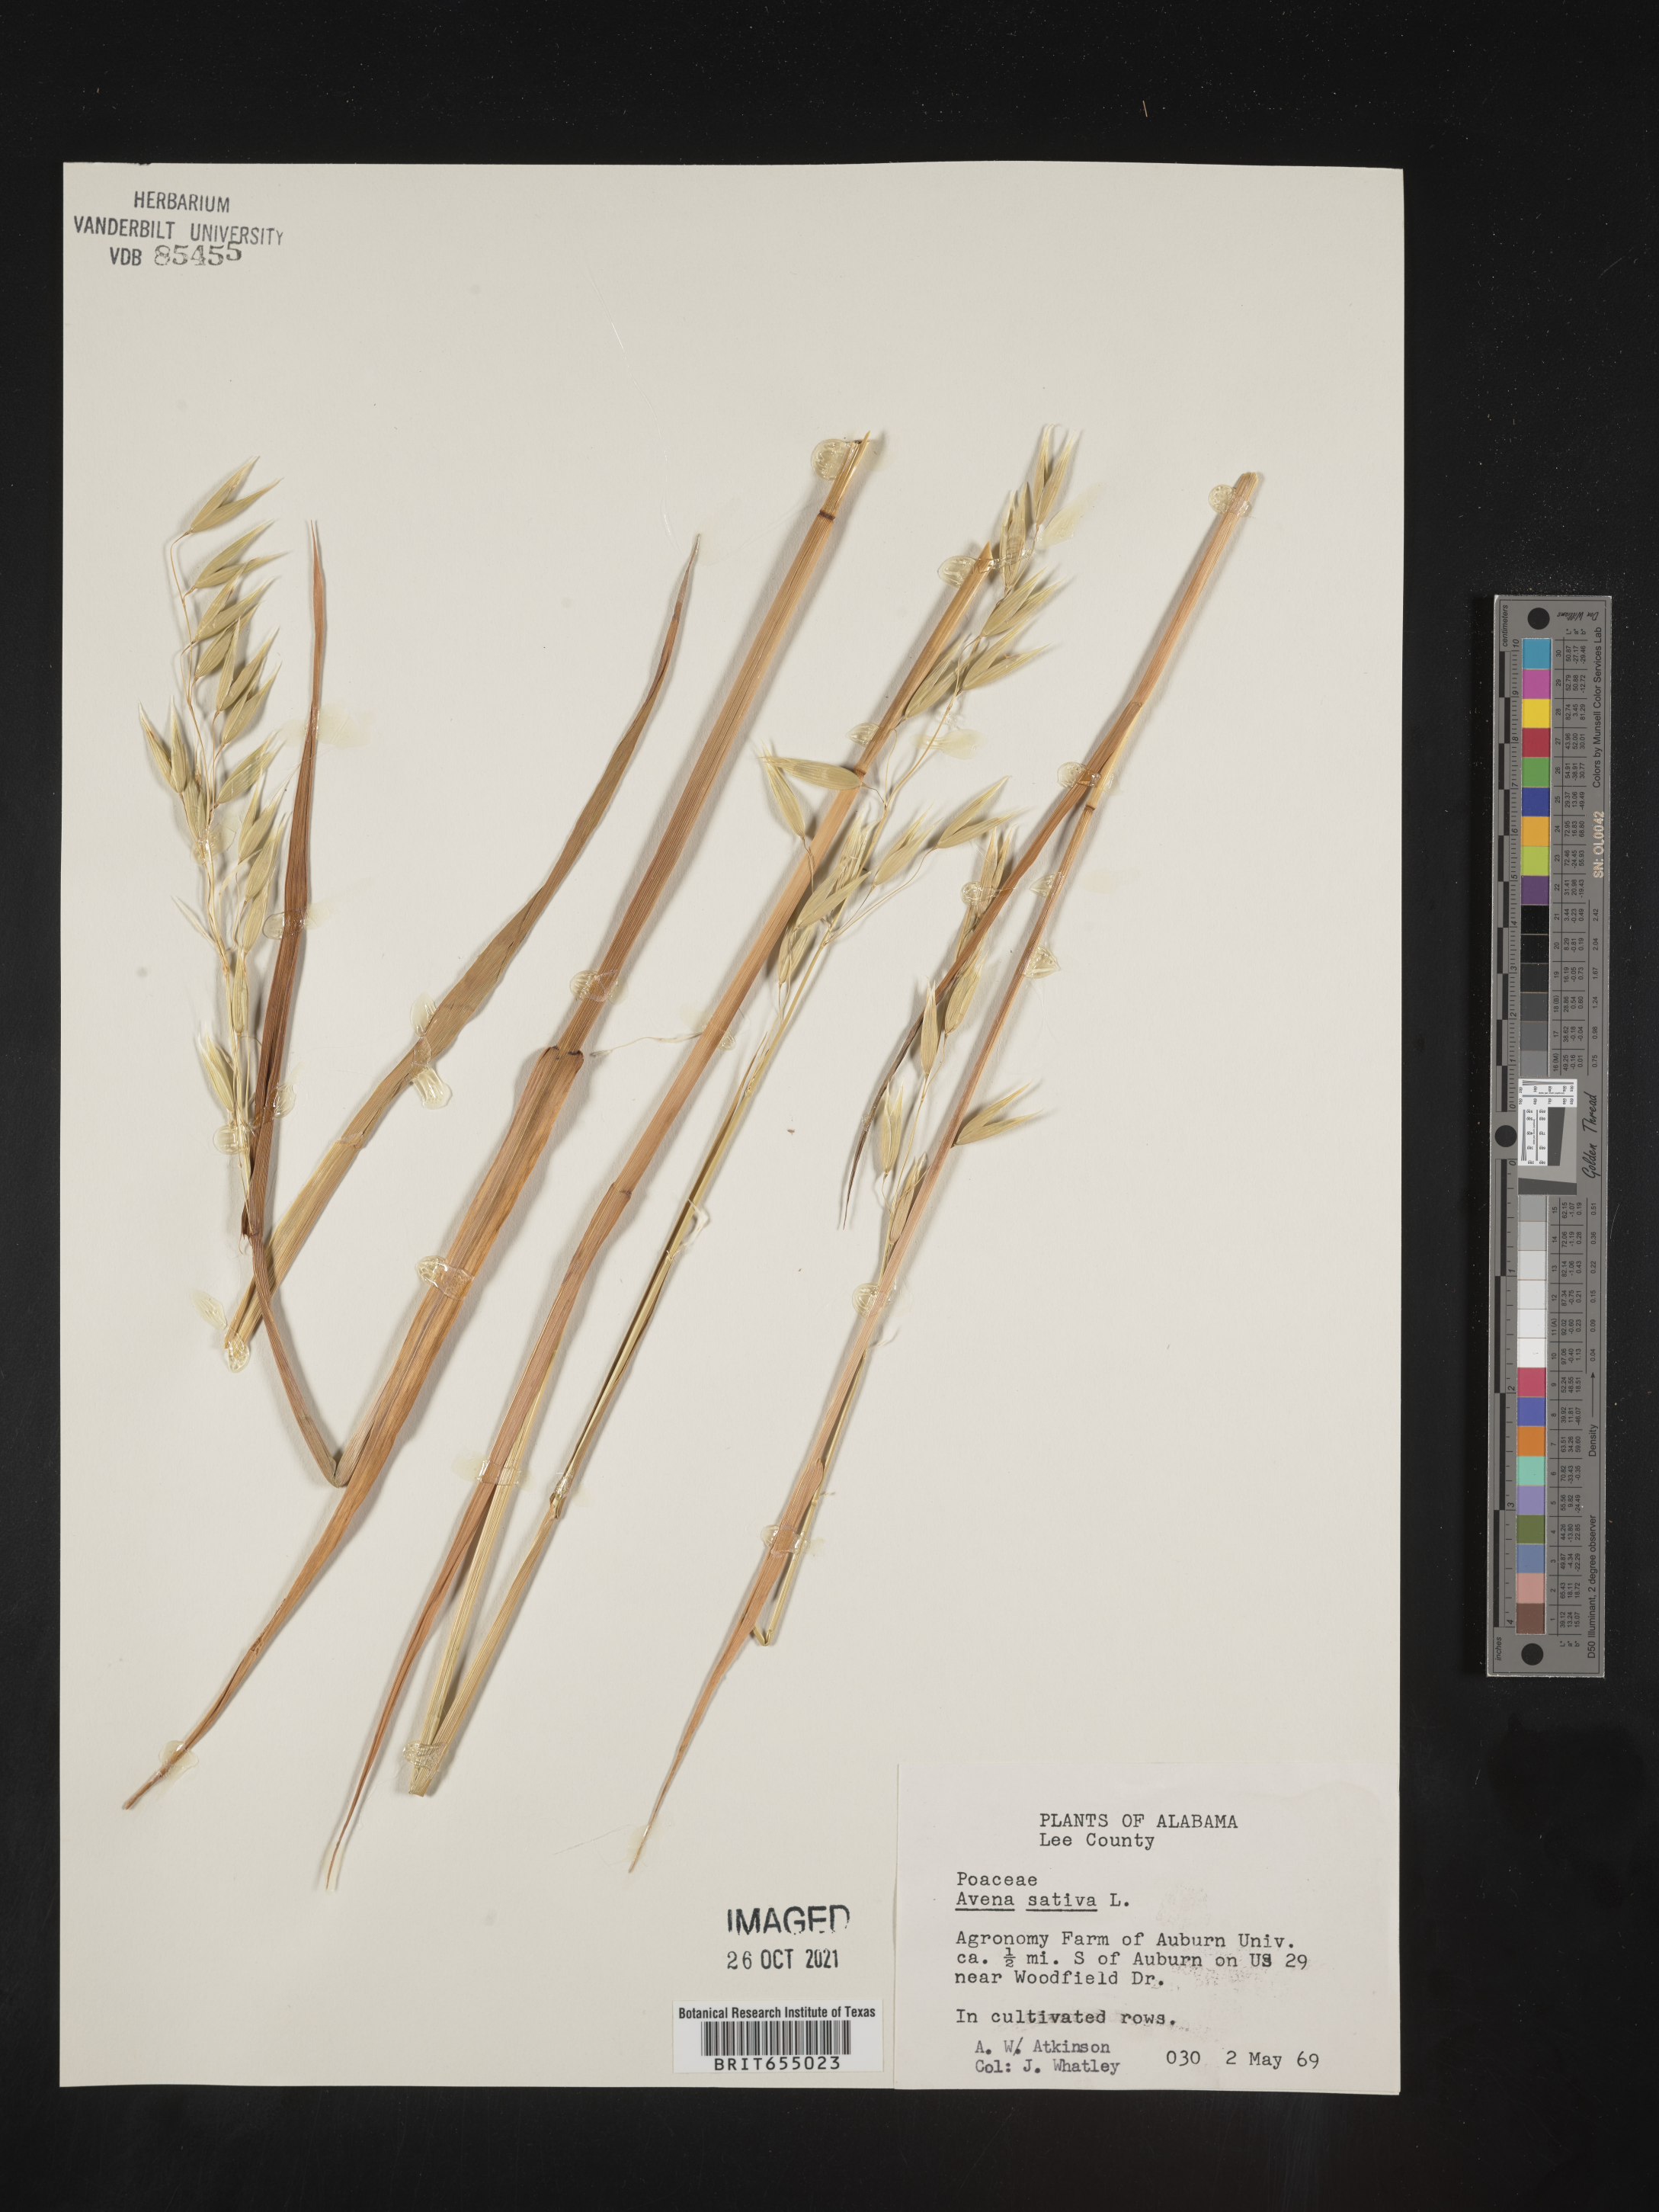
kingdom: Plantae
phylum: Tracheophyta
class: Liliopsida
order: Poales
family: Poaceae
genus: Avena
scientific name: Avena
